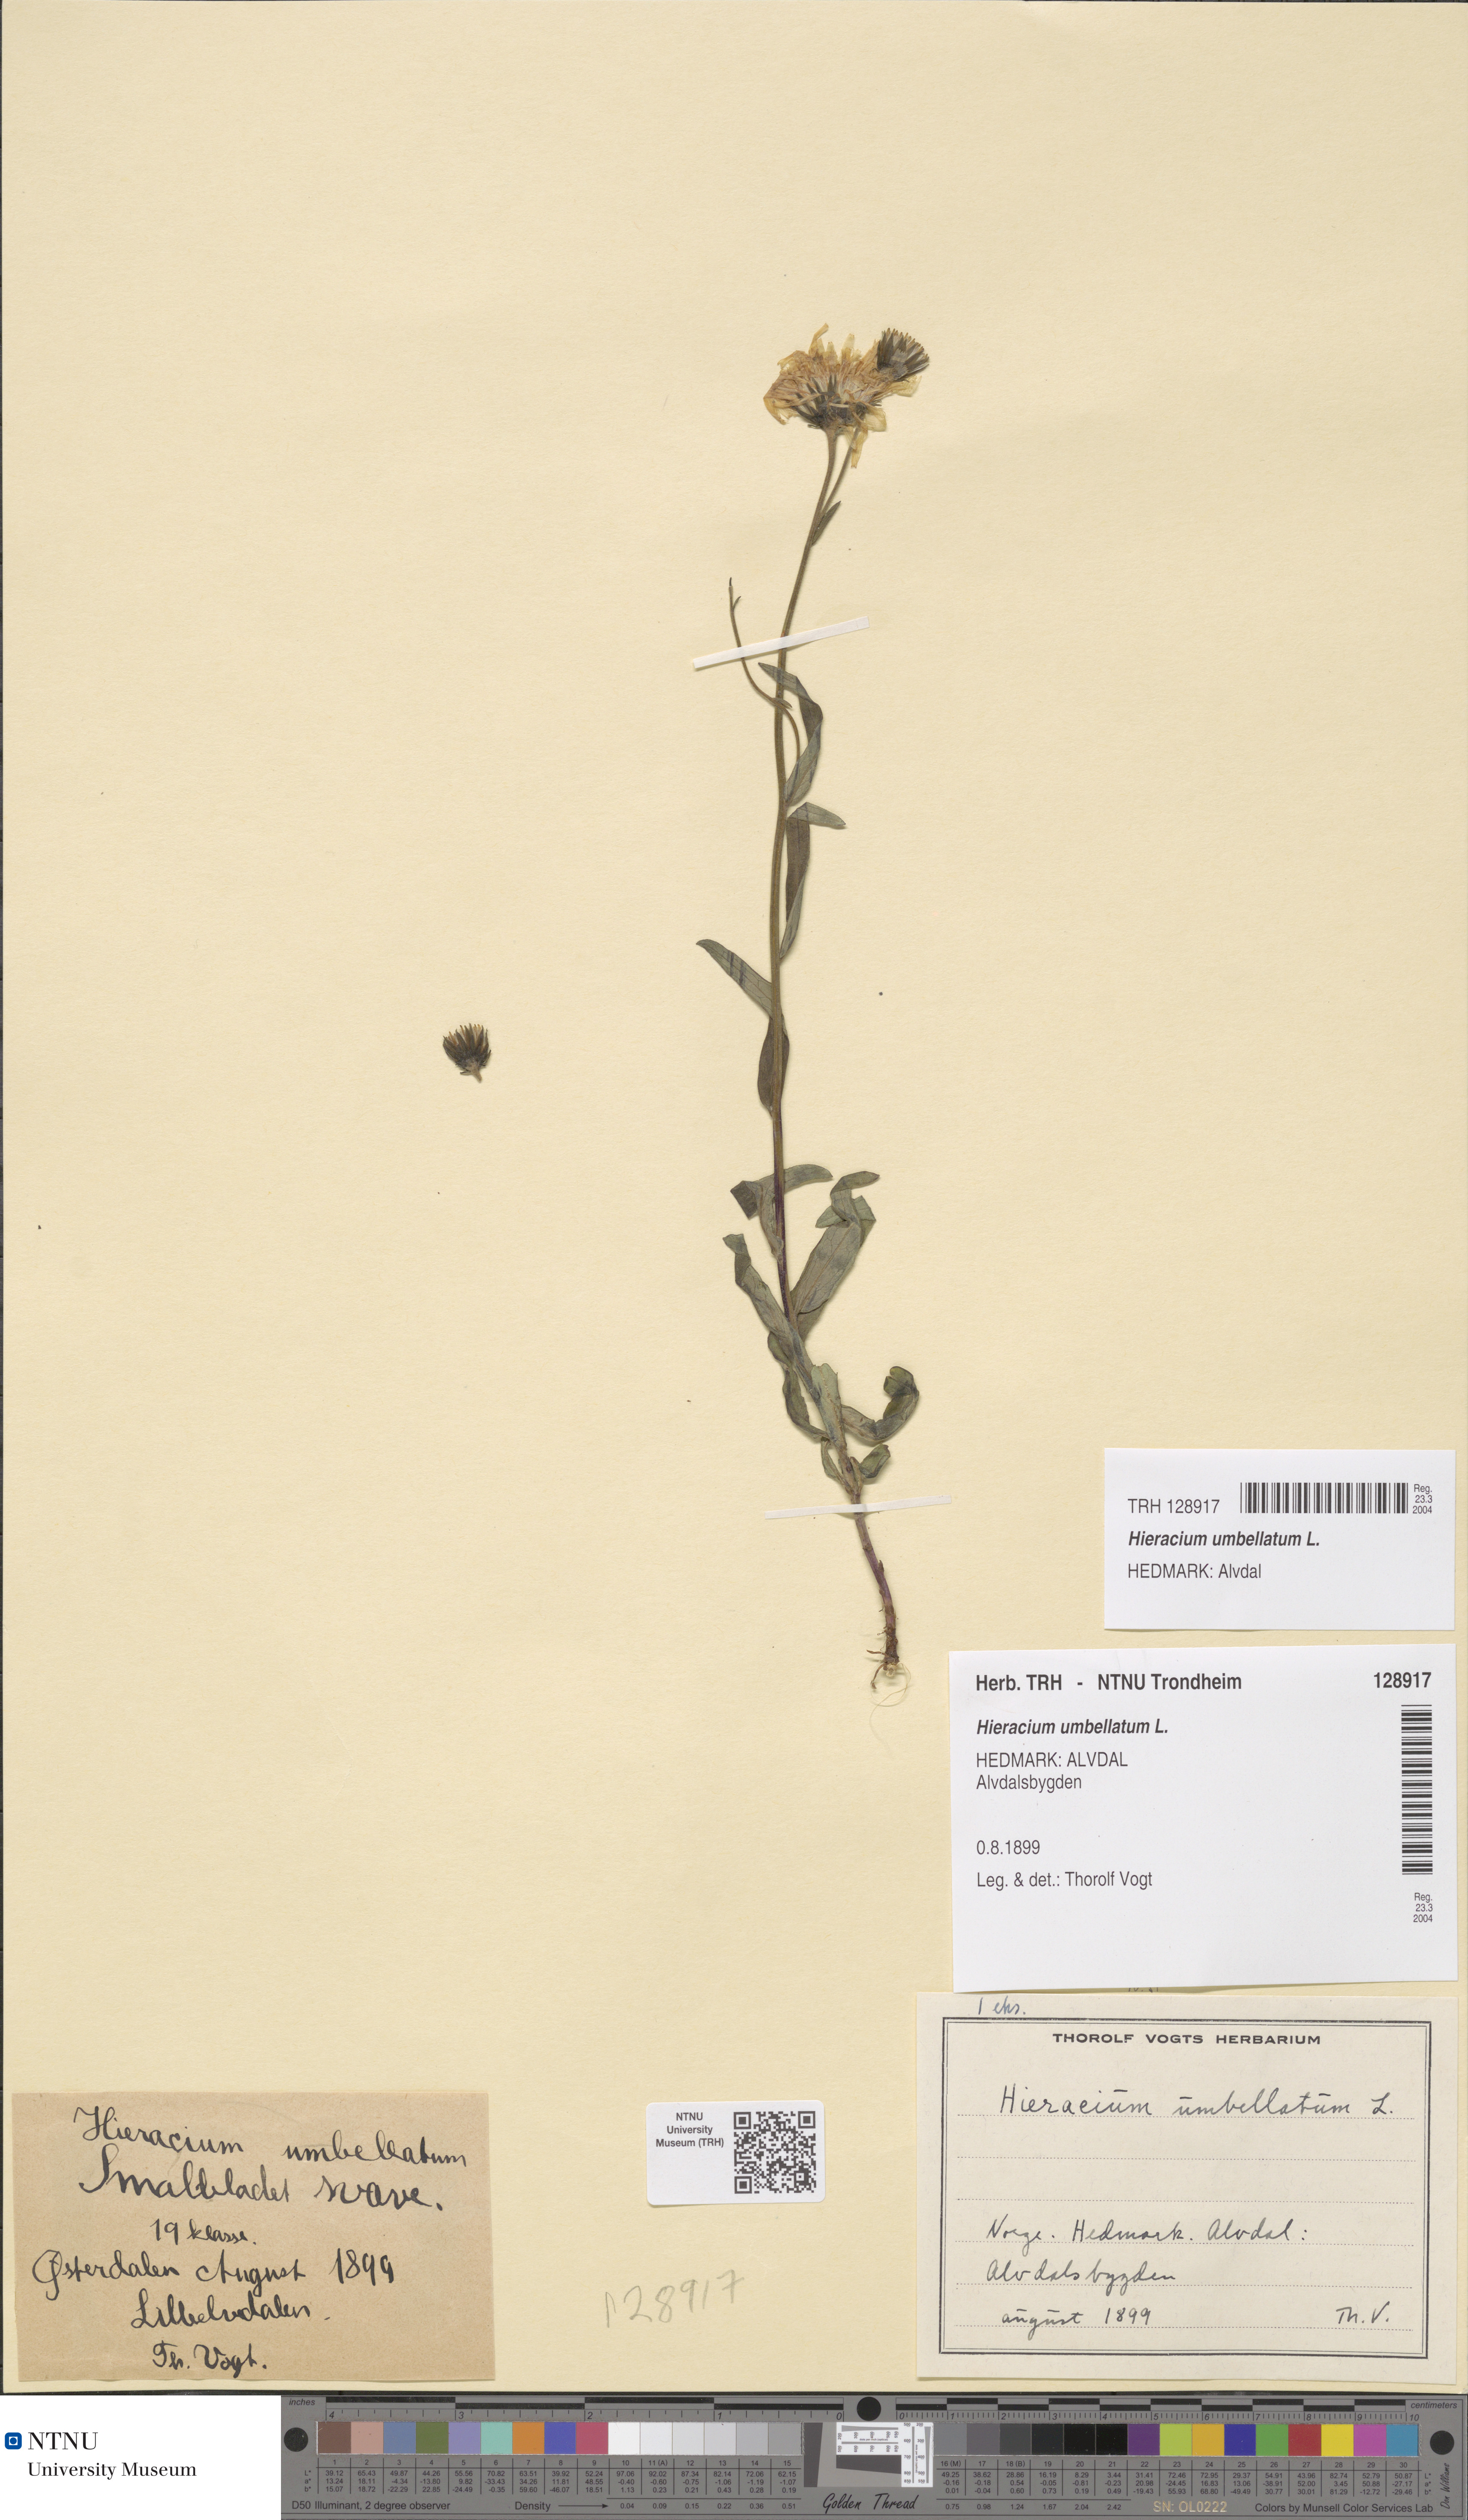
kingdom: Plantae
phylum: Tracheophyta
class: Magnoliopsida
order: Asterales
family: Asteraceae
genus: Hieracium
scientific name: Hieracium umbellatum
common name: Northern hawkweed
